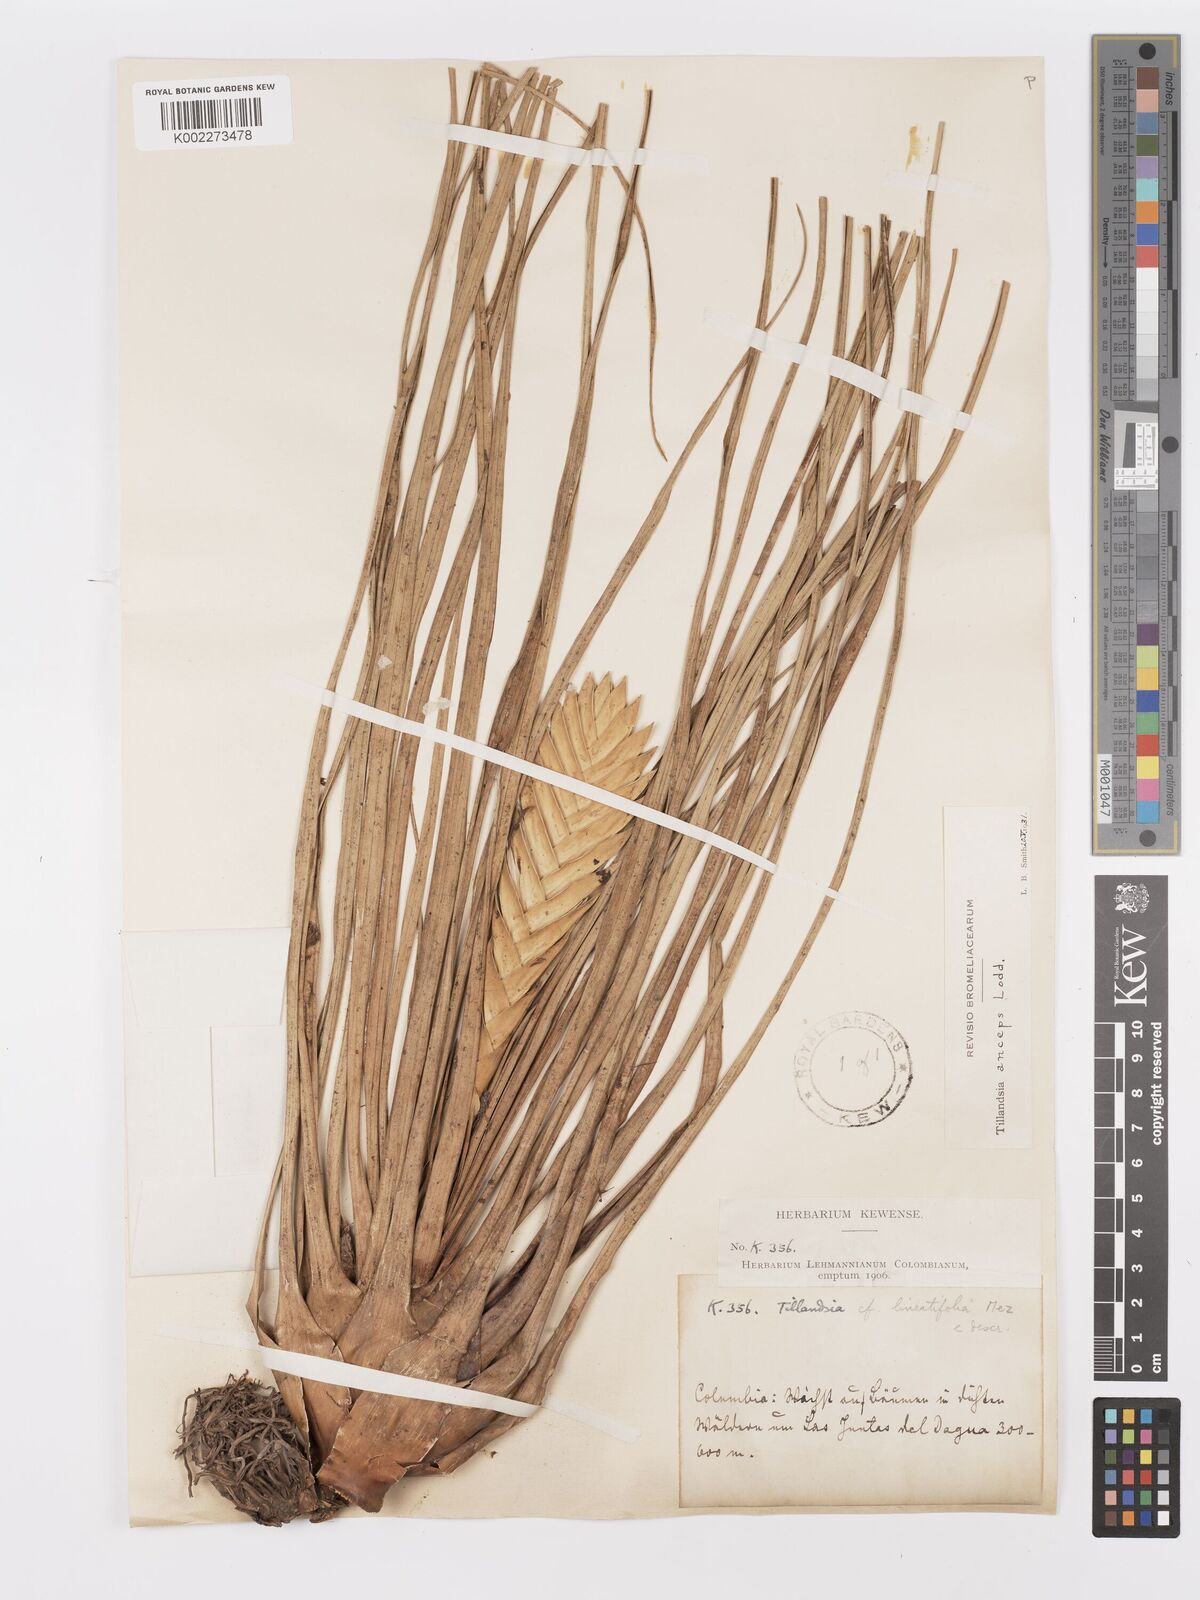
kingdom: Plantae
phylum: Tracheophyta
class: Liliopsida
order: Poales
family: Bromeliaceae
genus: Wallisia
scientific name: Wallisia anceps
